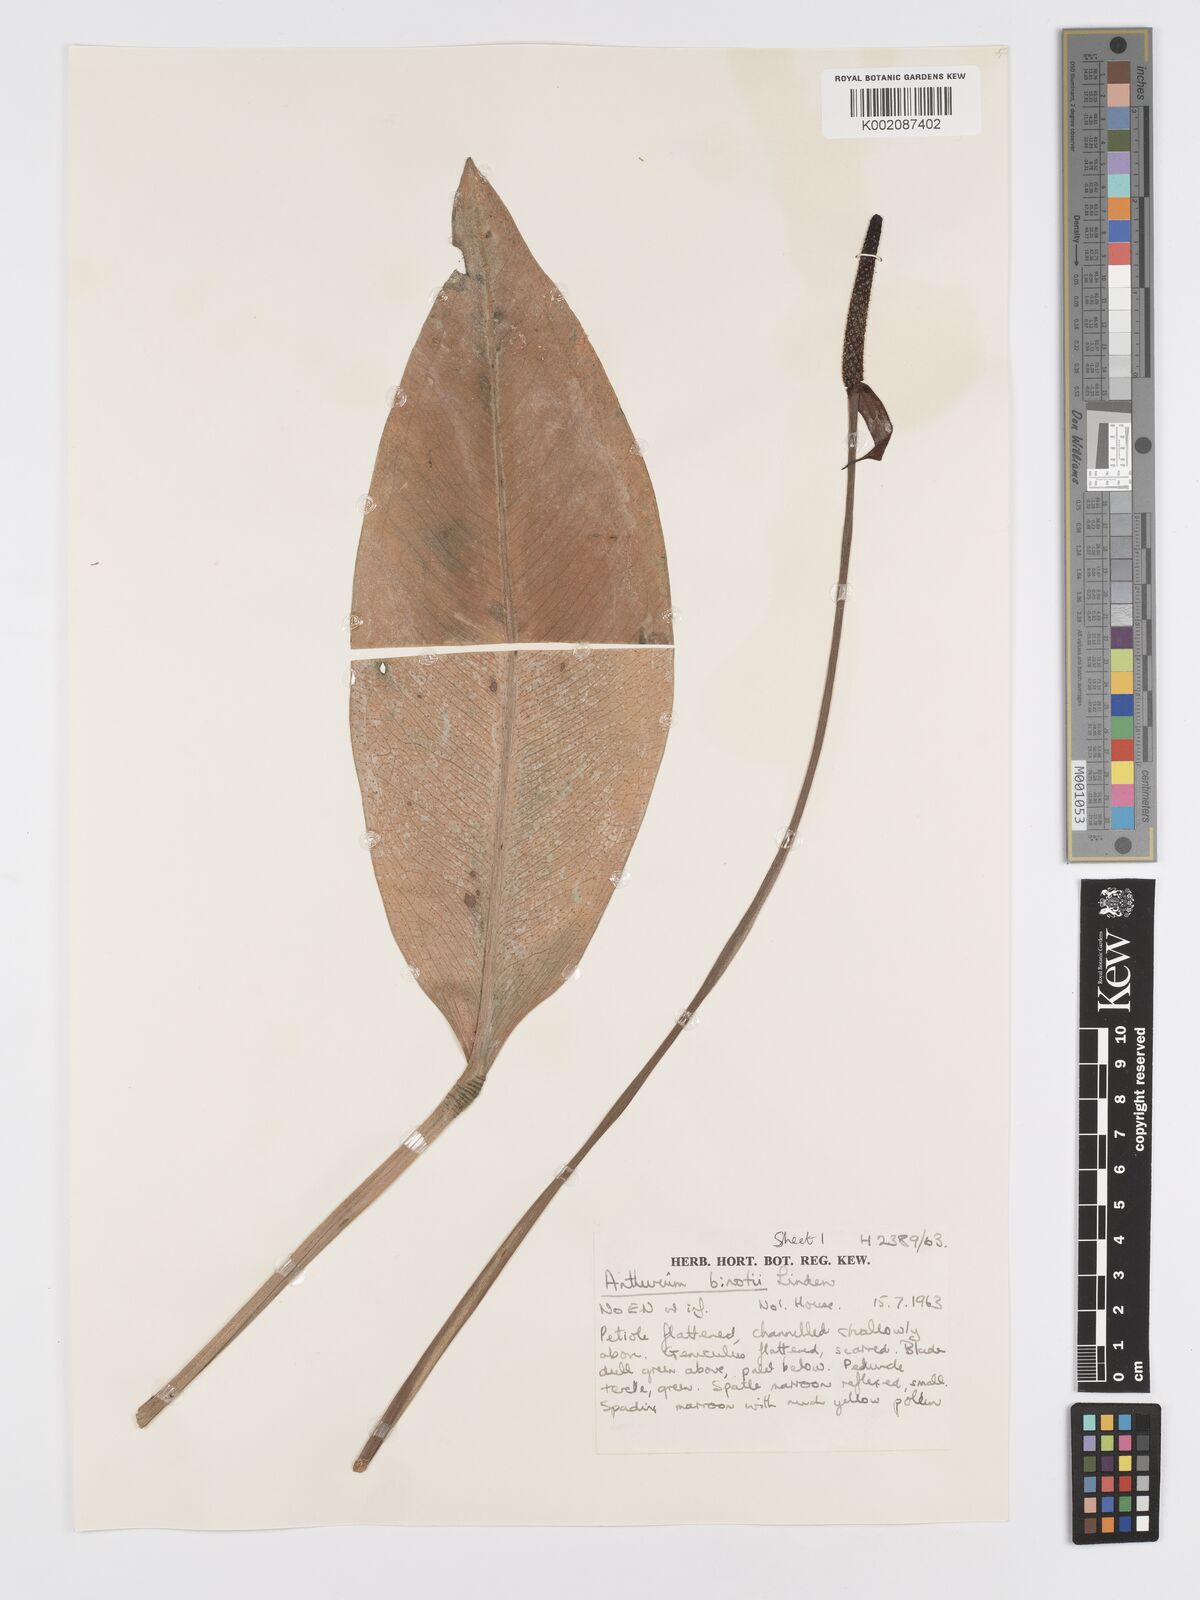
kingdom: Plantae
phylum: Tracheophyta
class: Liliopsida
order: Alismatales
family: Araceae
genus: Anthurium
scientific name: Anthurium binotii
